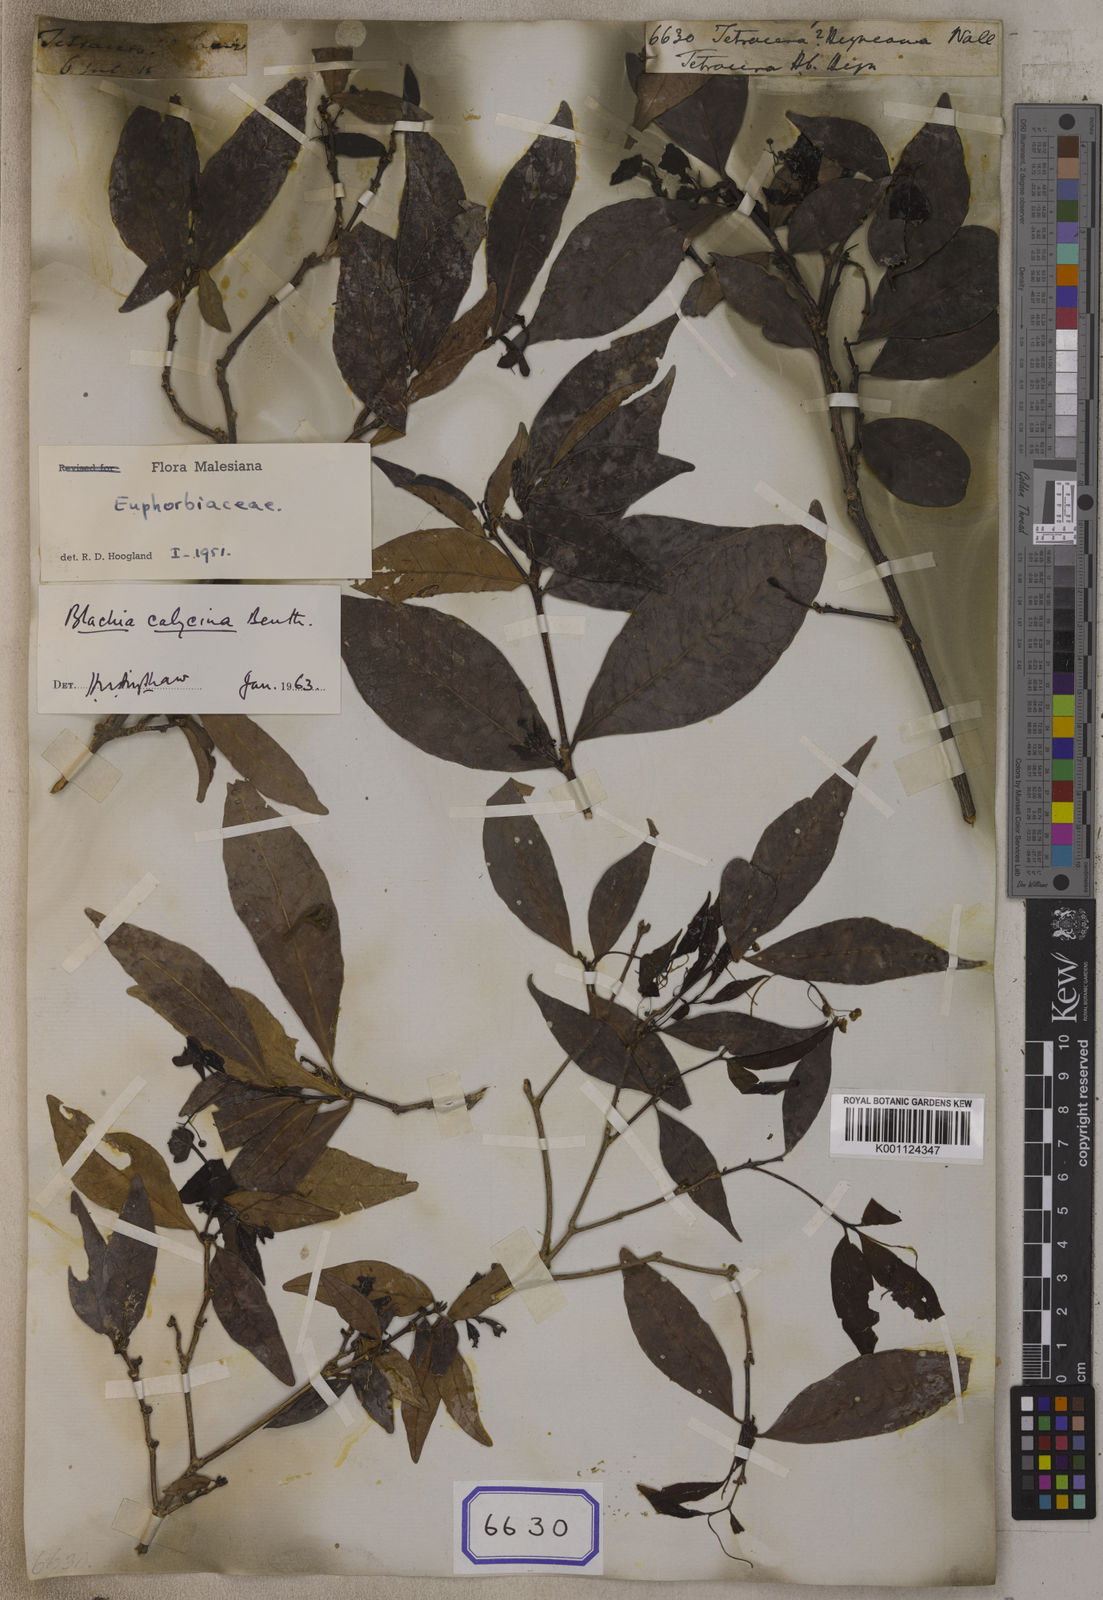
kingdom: Plantae
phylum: Tracheophyta
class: Magnoliopsida
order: Malpighiales
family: Euphorbiaceae
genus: Blachia
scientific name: Blachia calycina
